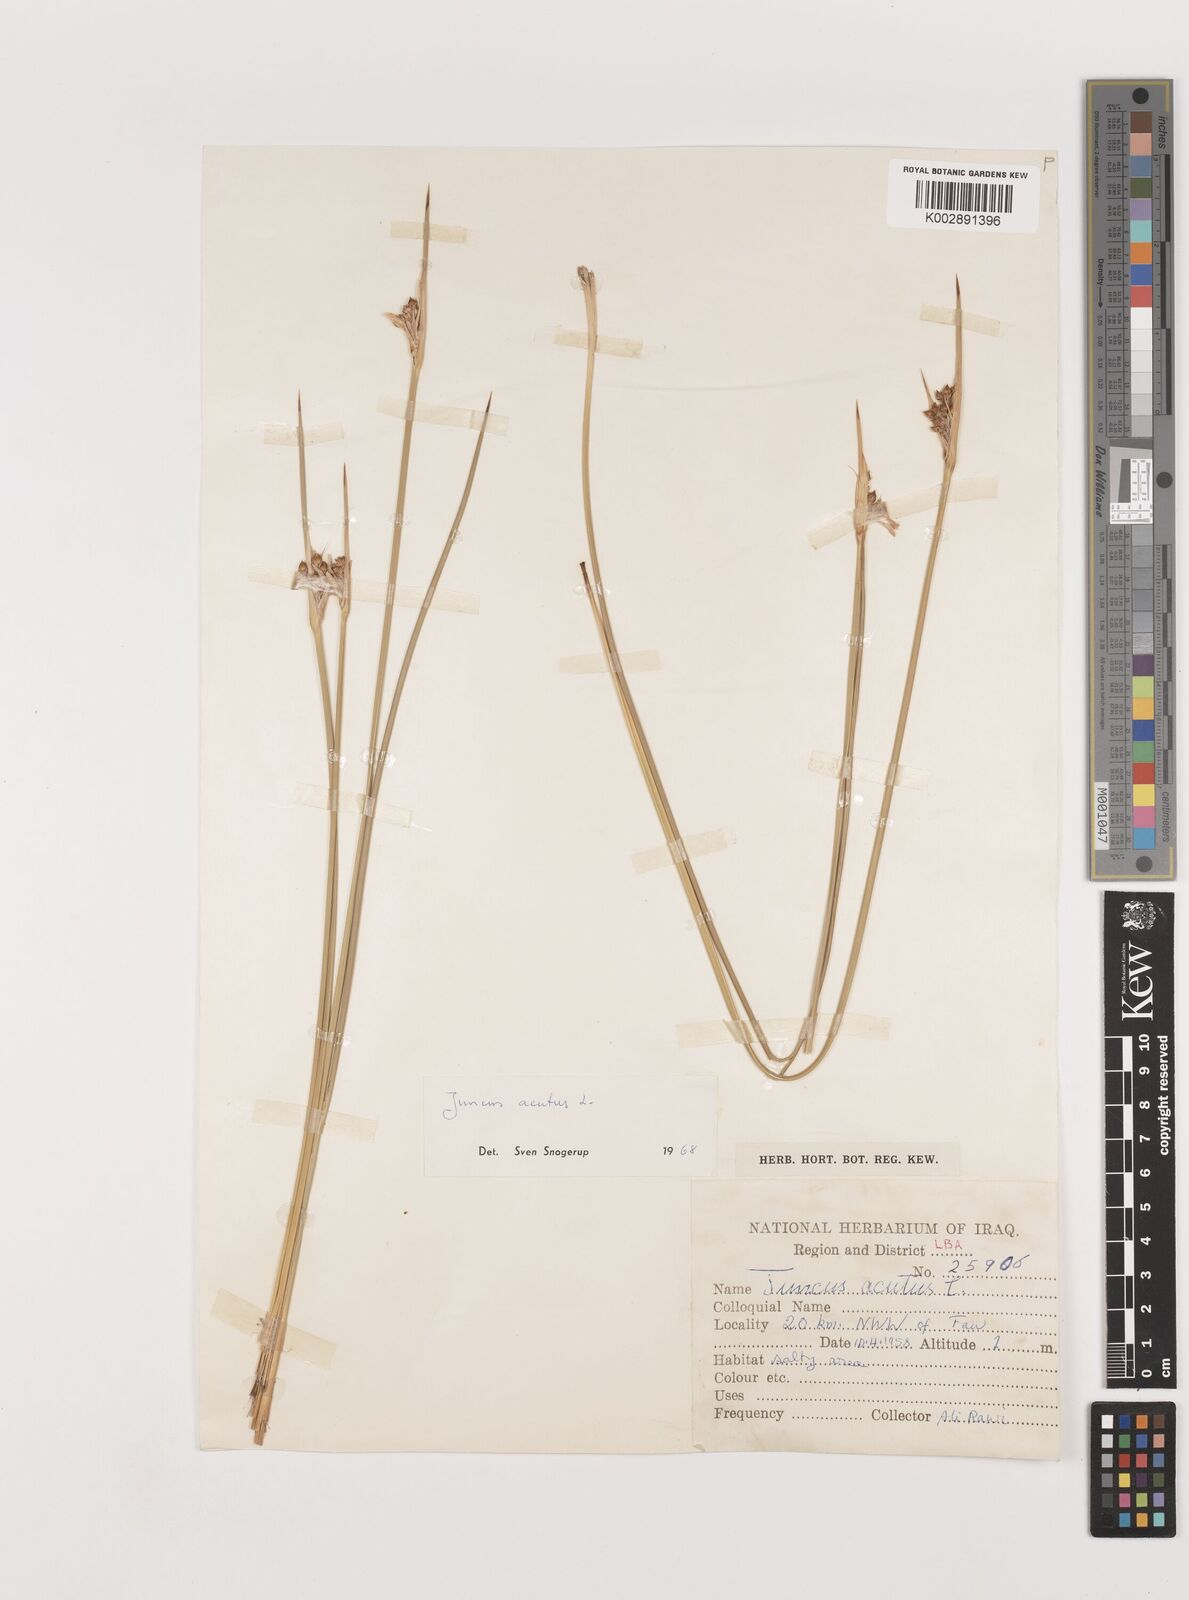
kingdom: Plantae
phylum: Tracheophyta
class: Liliopsida
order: Poales
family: Juncaceae
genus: Juncus
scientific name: Juncus acutus
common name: Sharp rush
